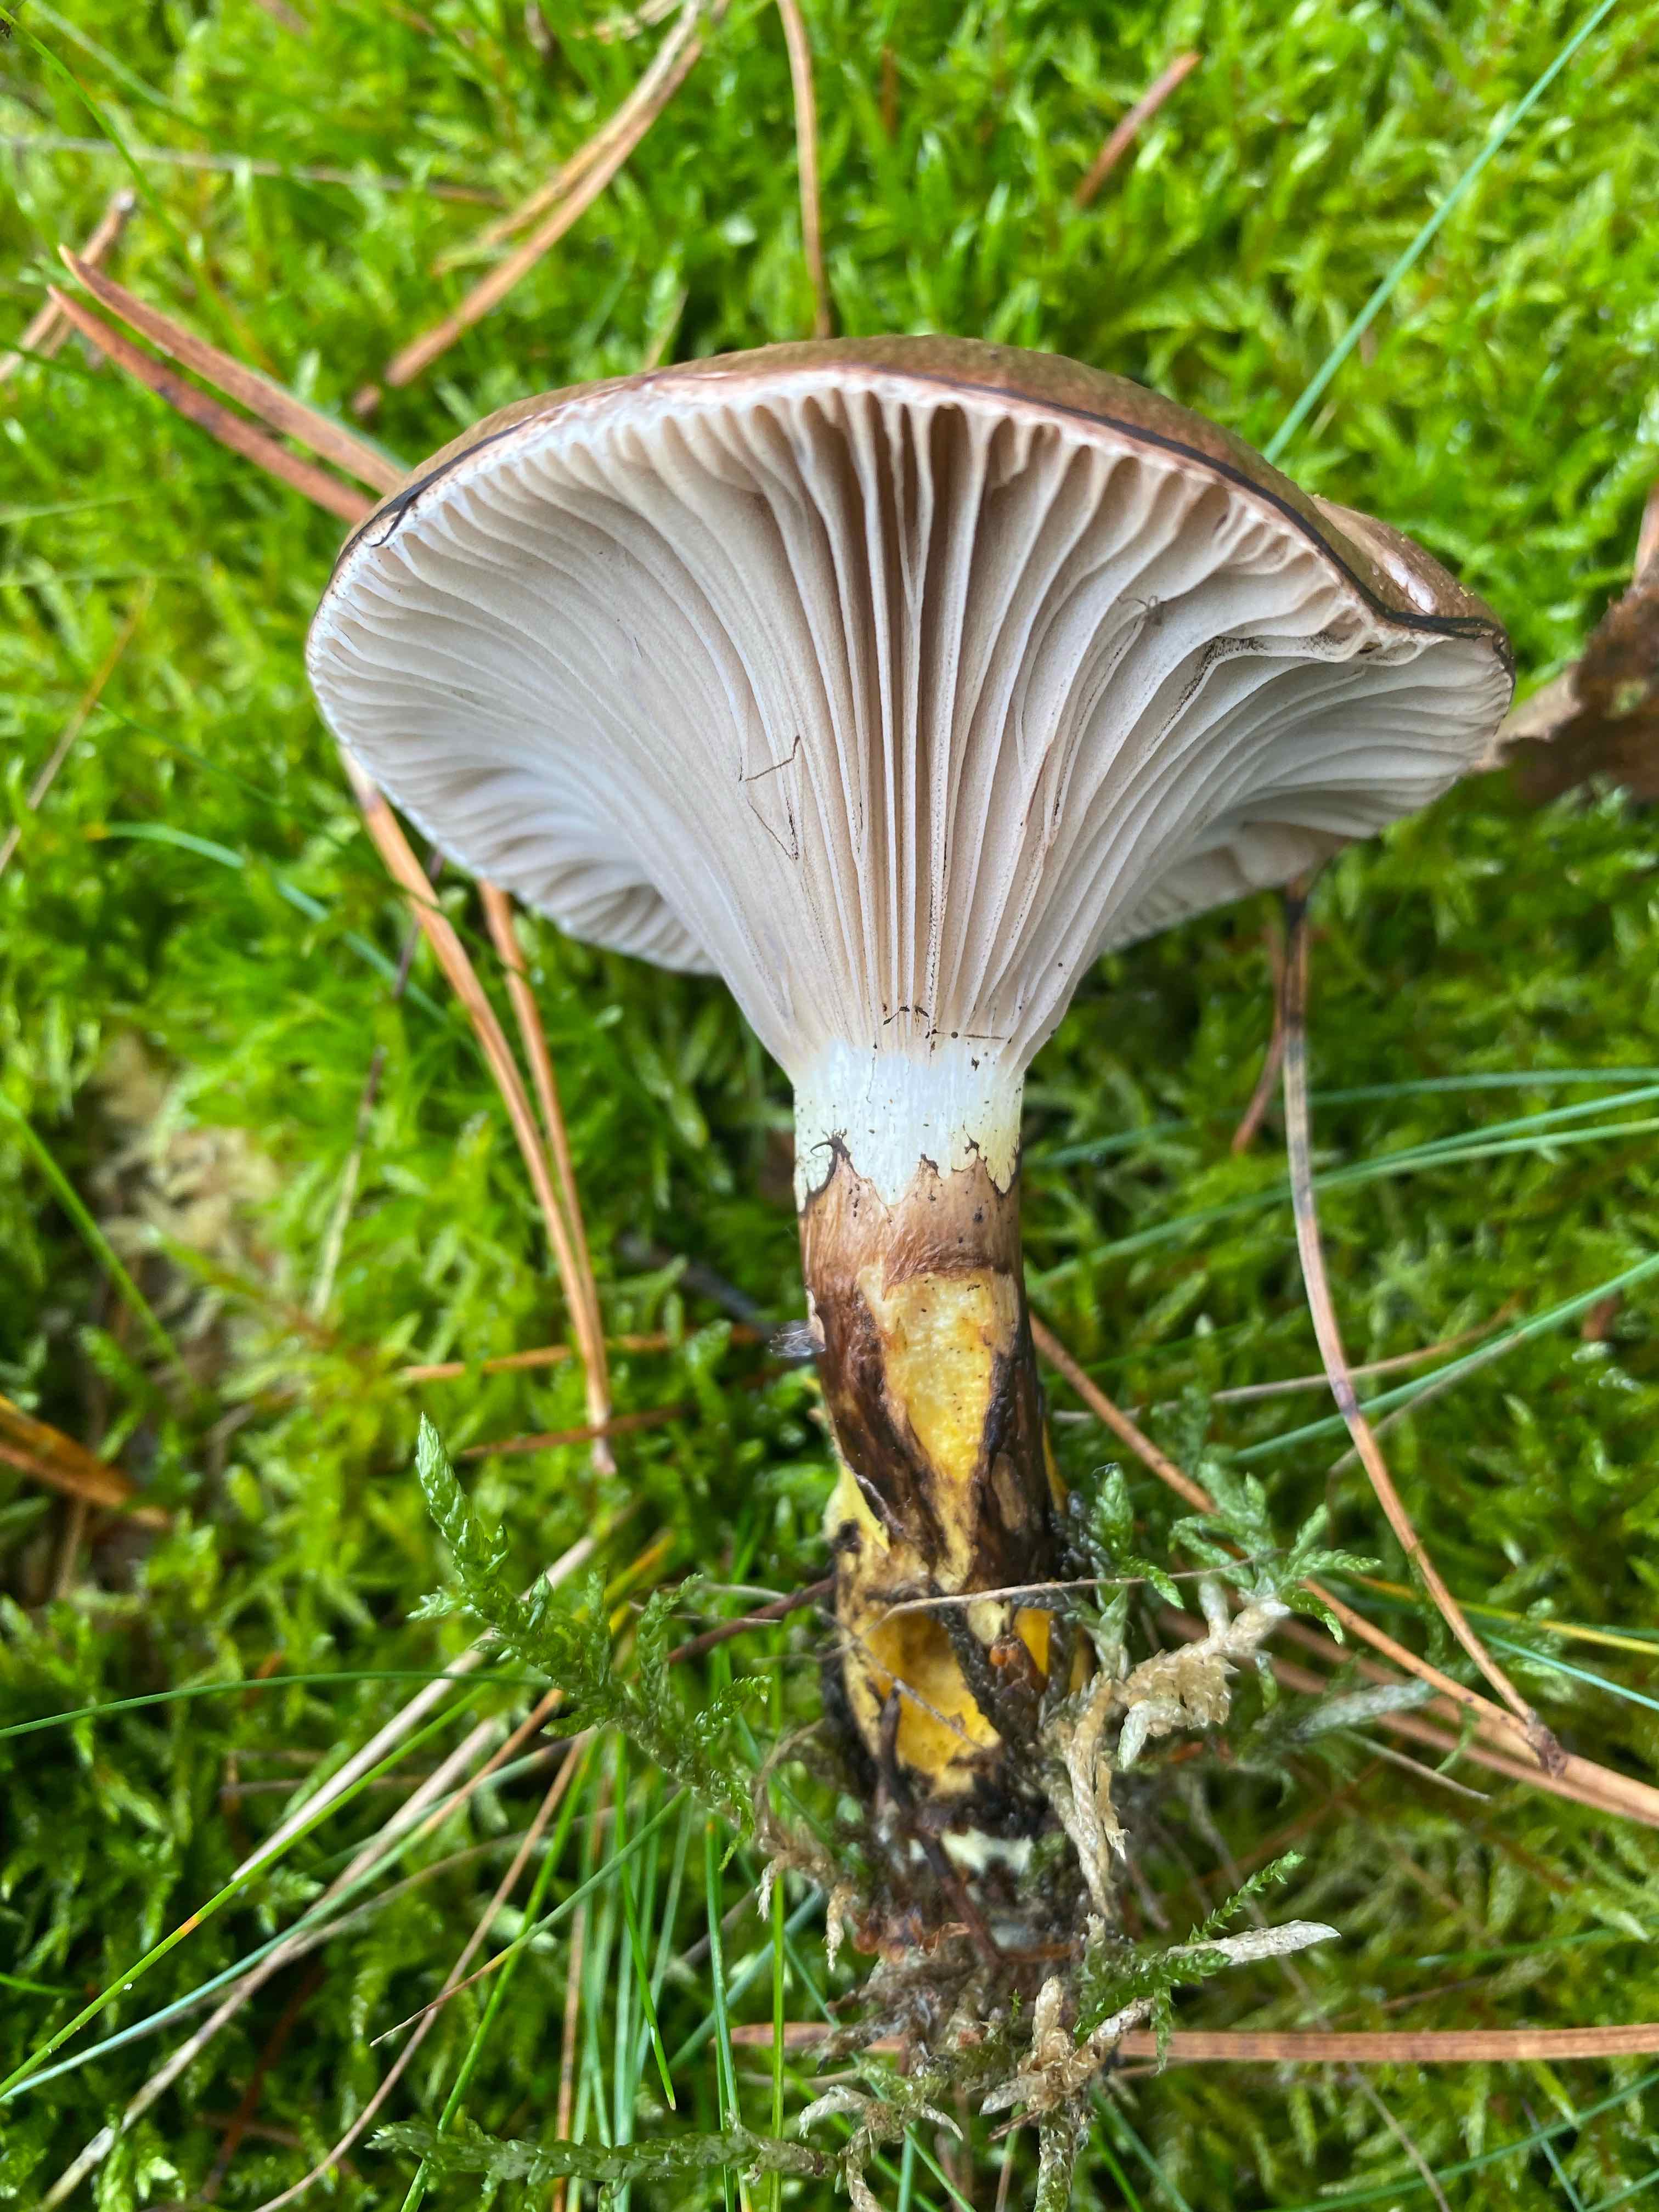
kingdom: Fungi
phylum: Basidiomycota
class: Agaricomycetes
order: Boletales
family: Gomphidiaceae
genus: Gomphidius
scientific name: Gomphidius glutinosus
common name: grå slimslør
